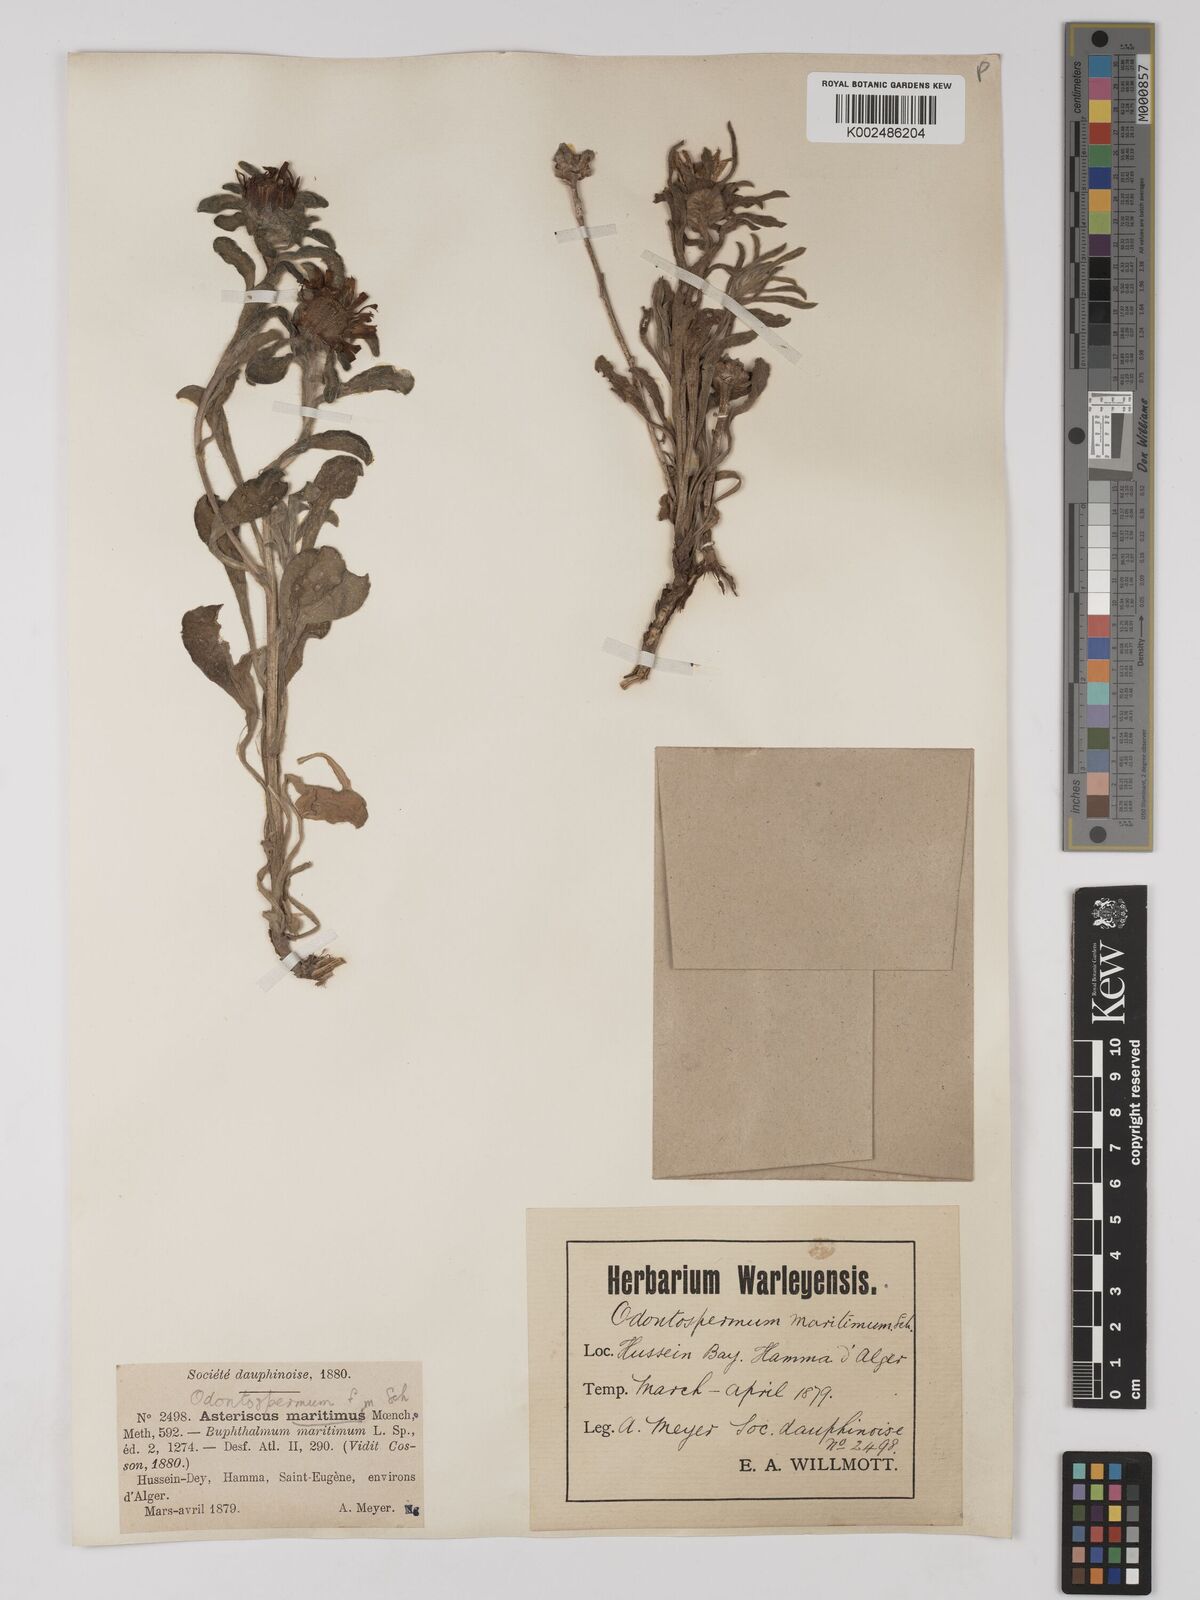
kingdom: Plantae
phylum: Tracheophyta
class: Magnoliopsida
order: Asterales
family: Asteraceae
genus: Pallenis
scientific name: Pallenis maritima
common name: Golden coin daisy
